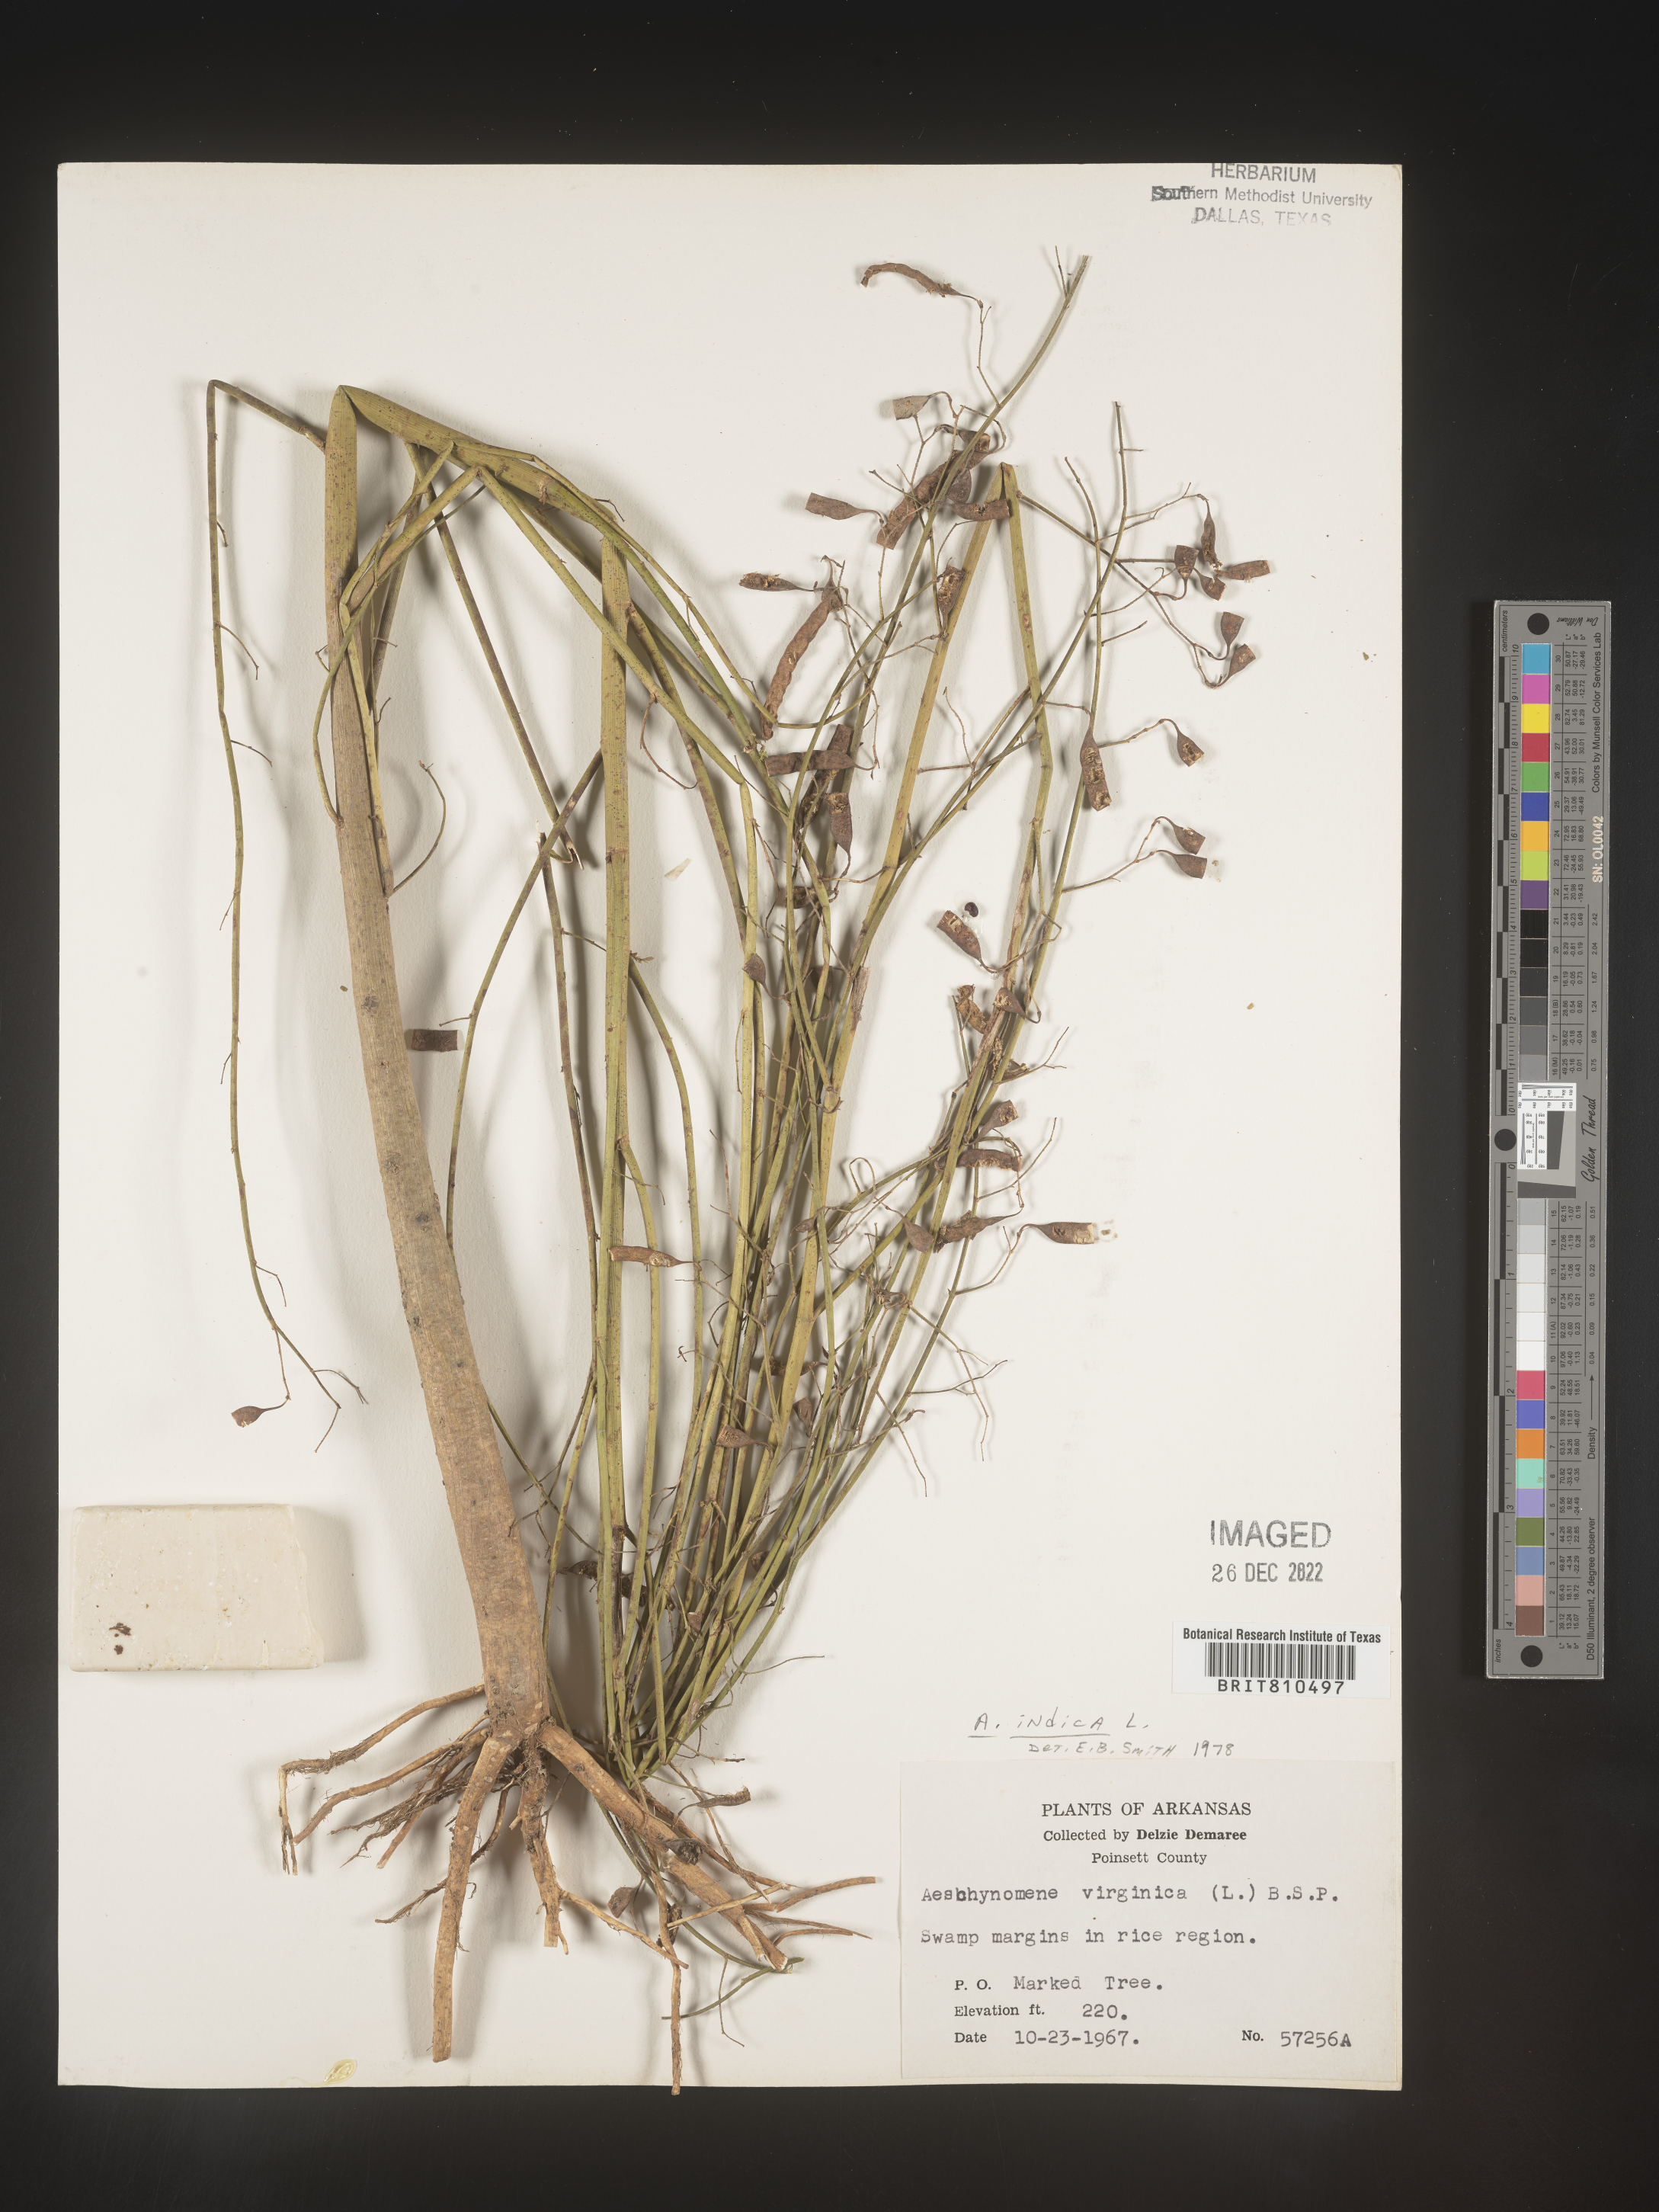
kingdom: Plantae
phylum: Tracheophyta
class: Magnoliopsida
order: Fabales
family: Fabaceae
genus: Aeschynomene
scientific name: Aeschynomene indica
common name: Indian jointvetch
